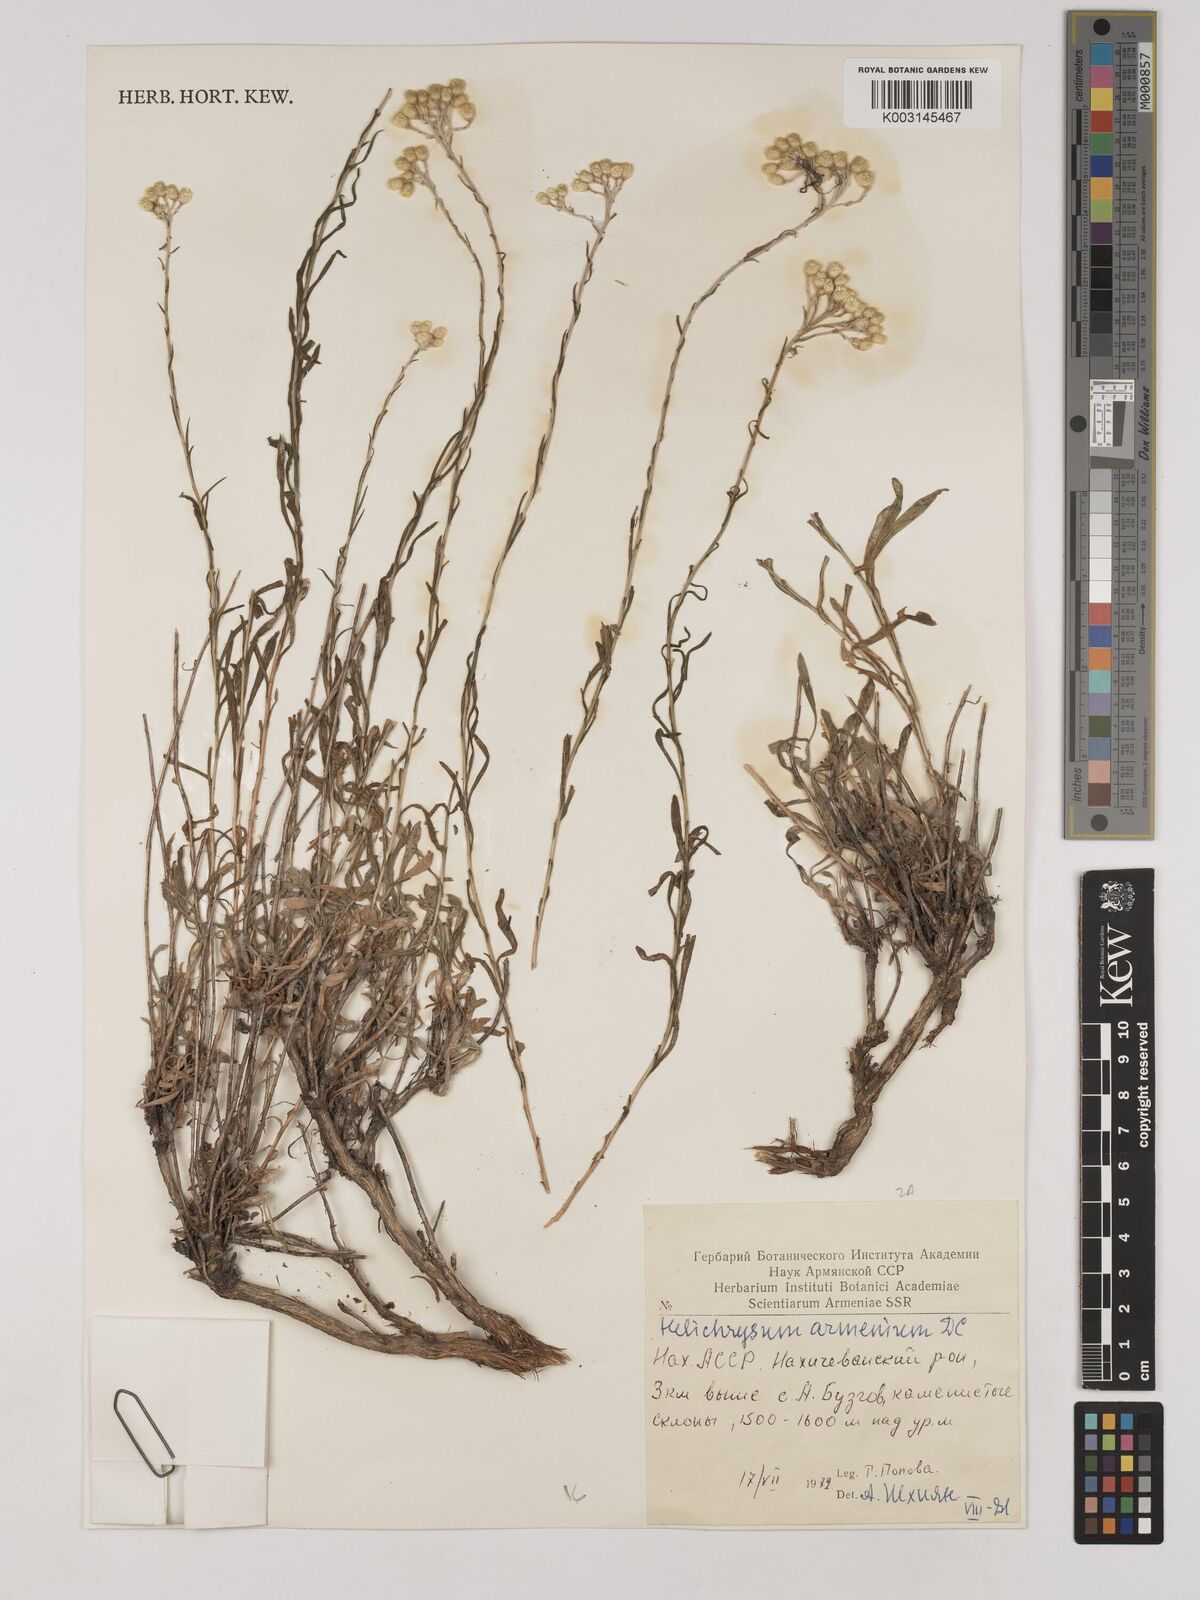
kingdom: Plantae
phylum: Tracheophyta
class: Magnoliopsida
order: Asterales
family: Asteraceae
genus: Helichrysum
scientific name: Helichrysum armenium
